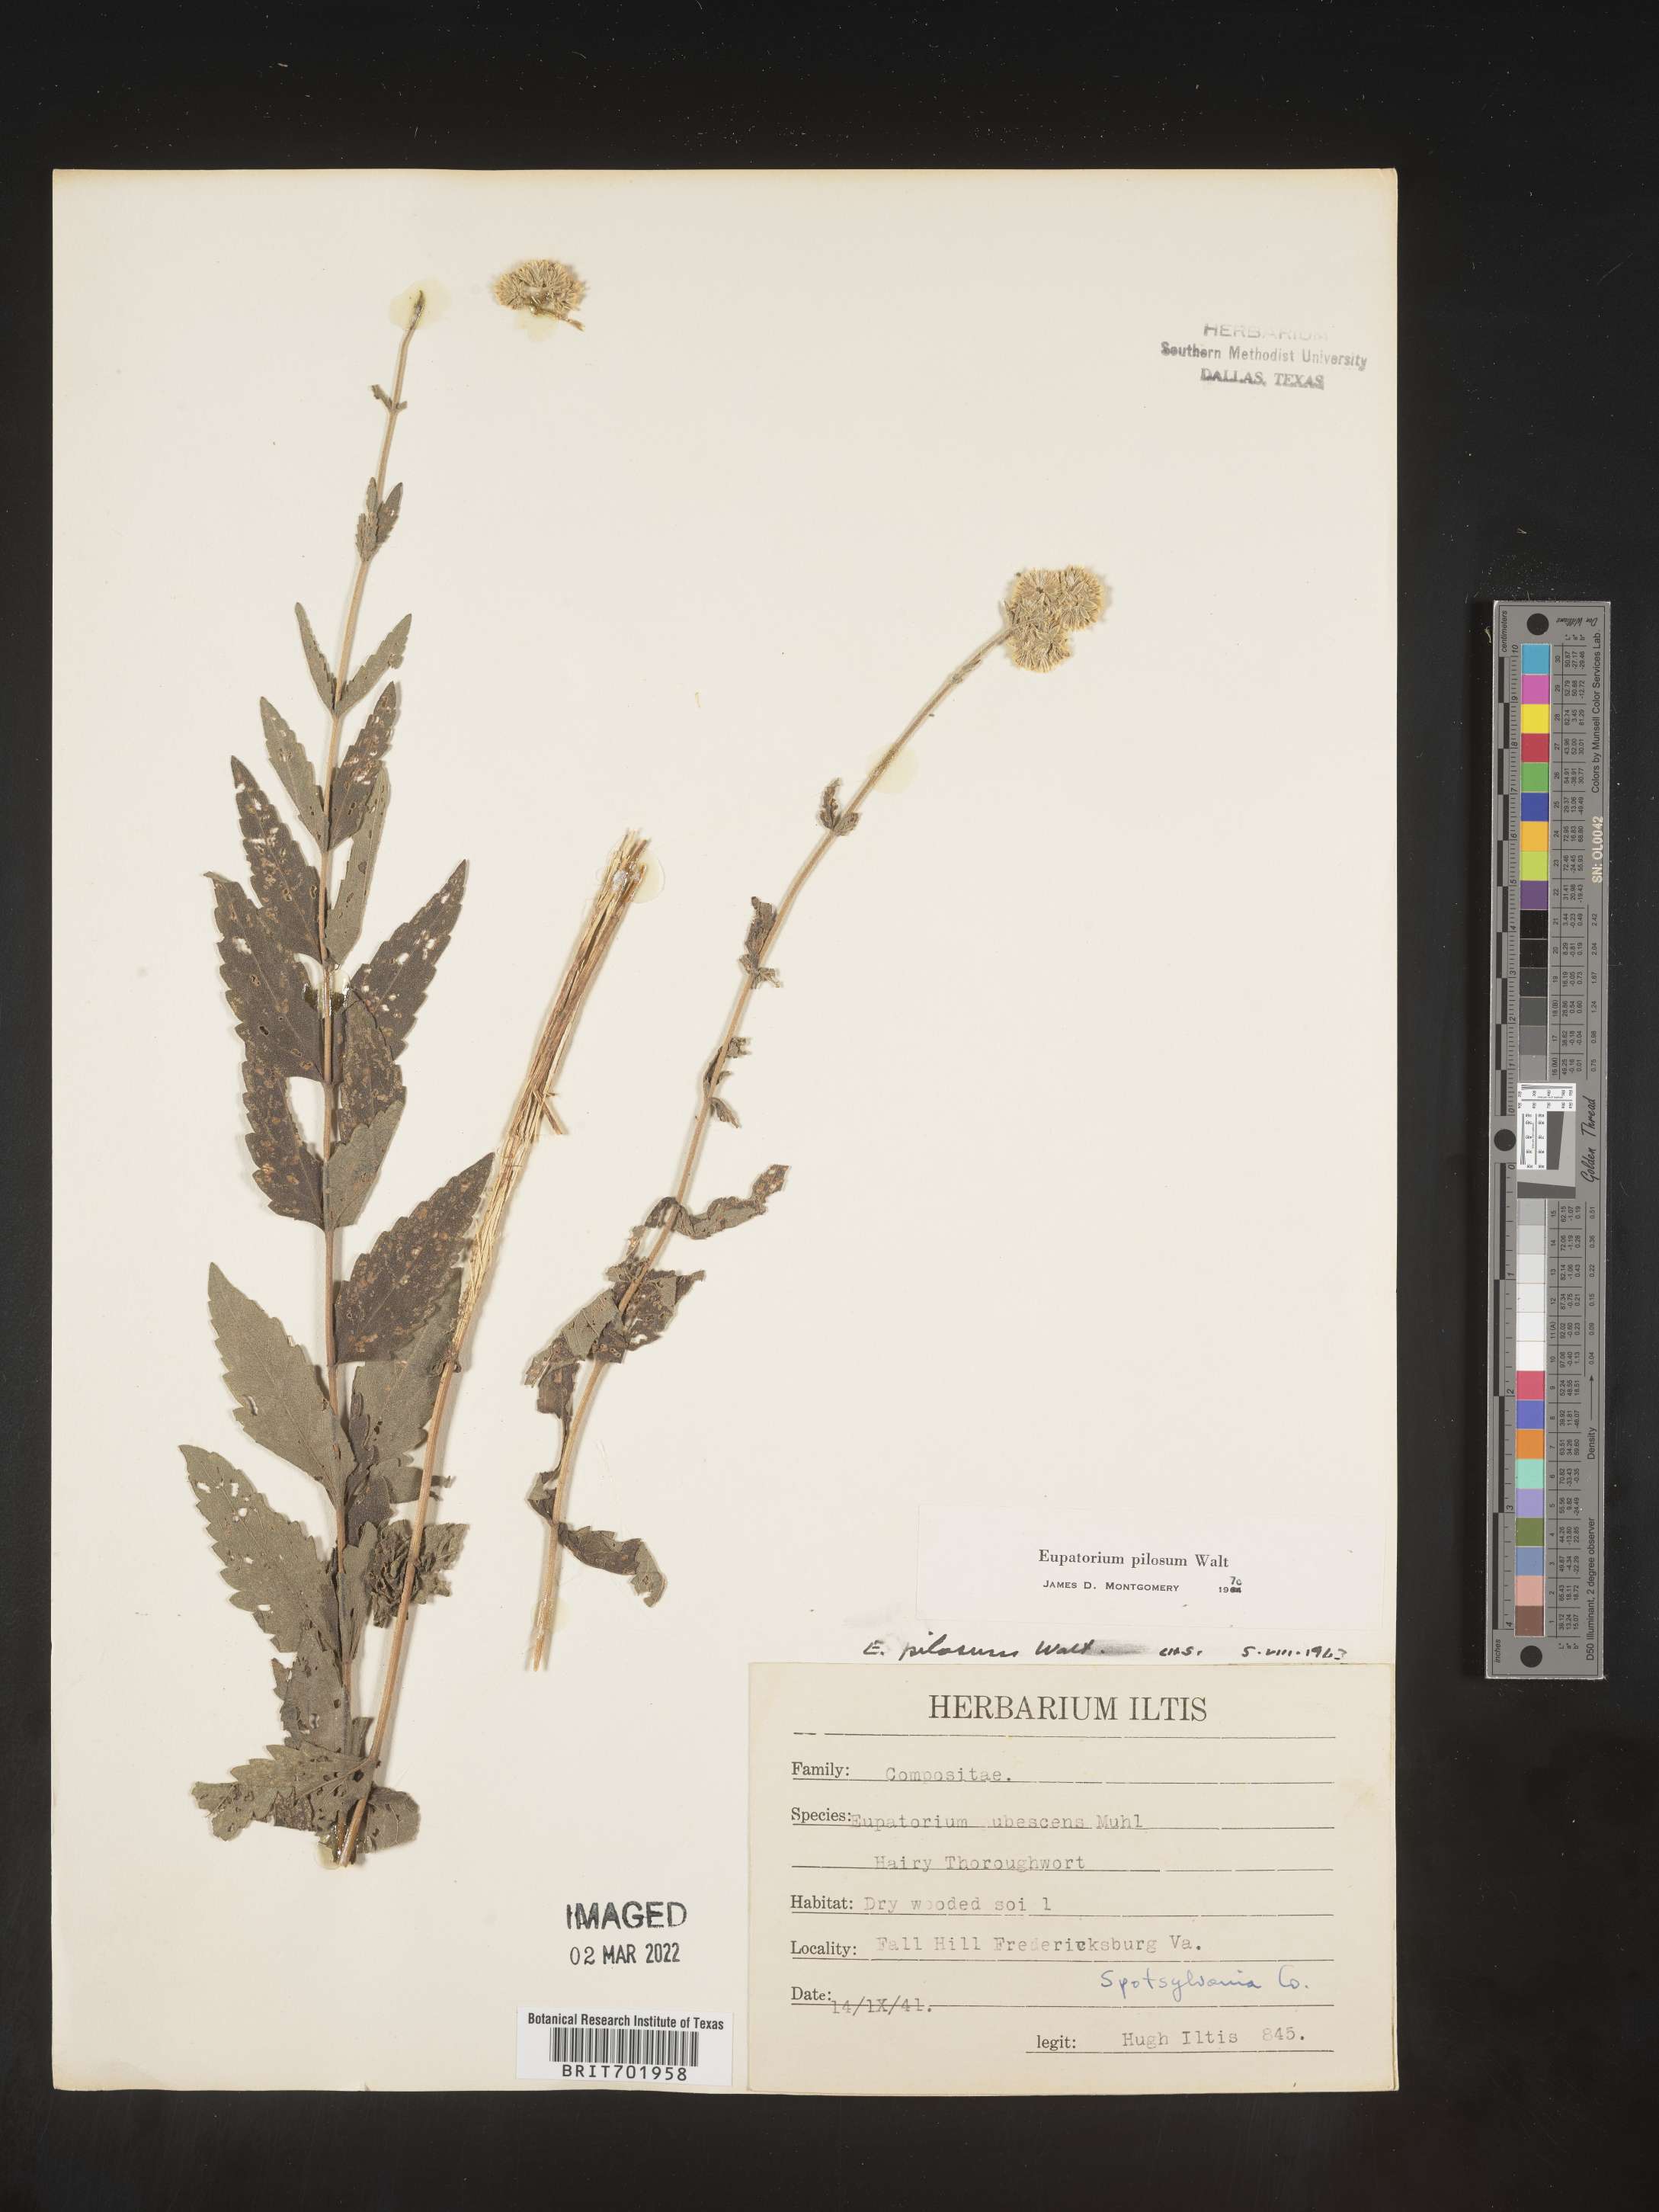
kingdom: Plantae
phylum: Tracheophyta
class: Magnoliopsida
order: Asterales
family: Asteraceae
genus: Eupatorium
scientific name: Eupatorium pilosum
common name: Rough boneset
